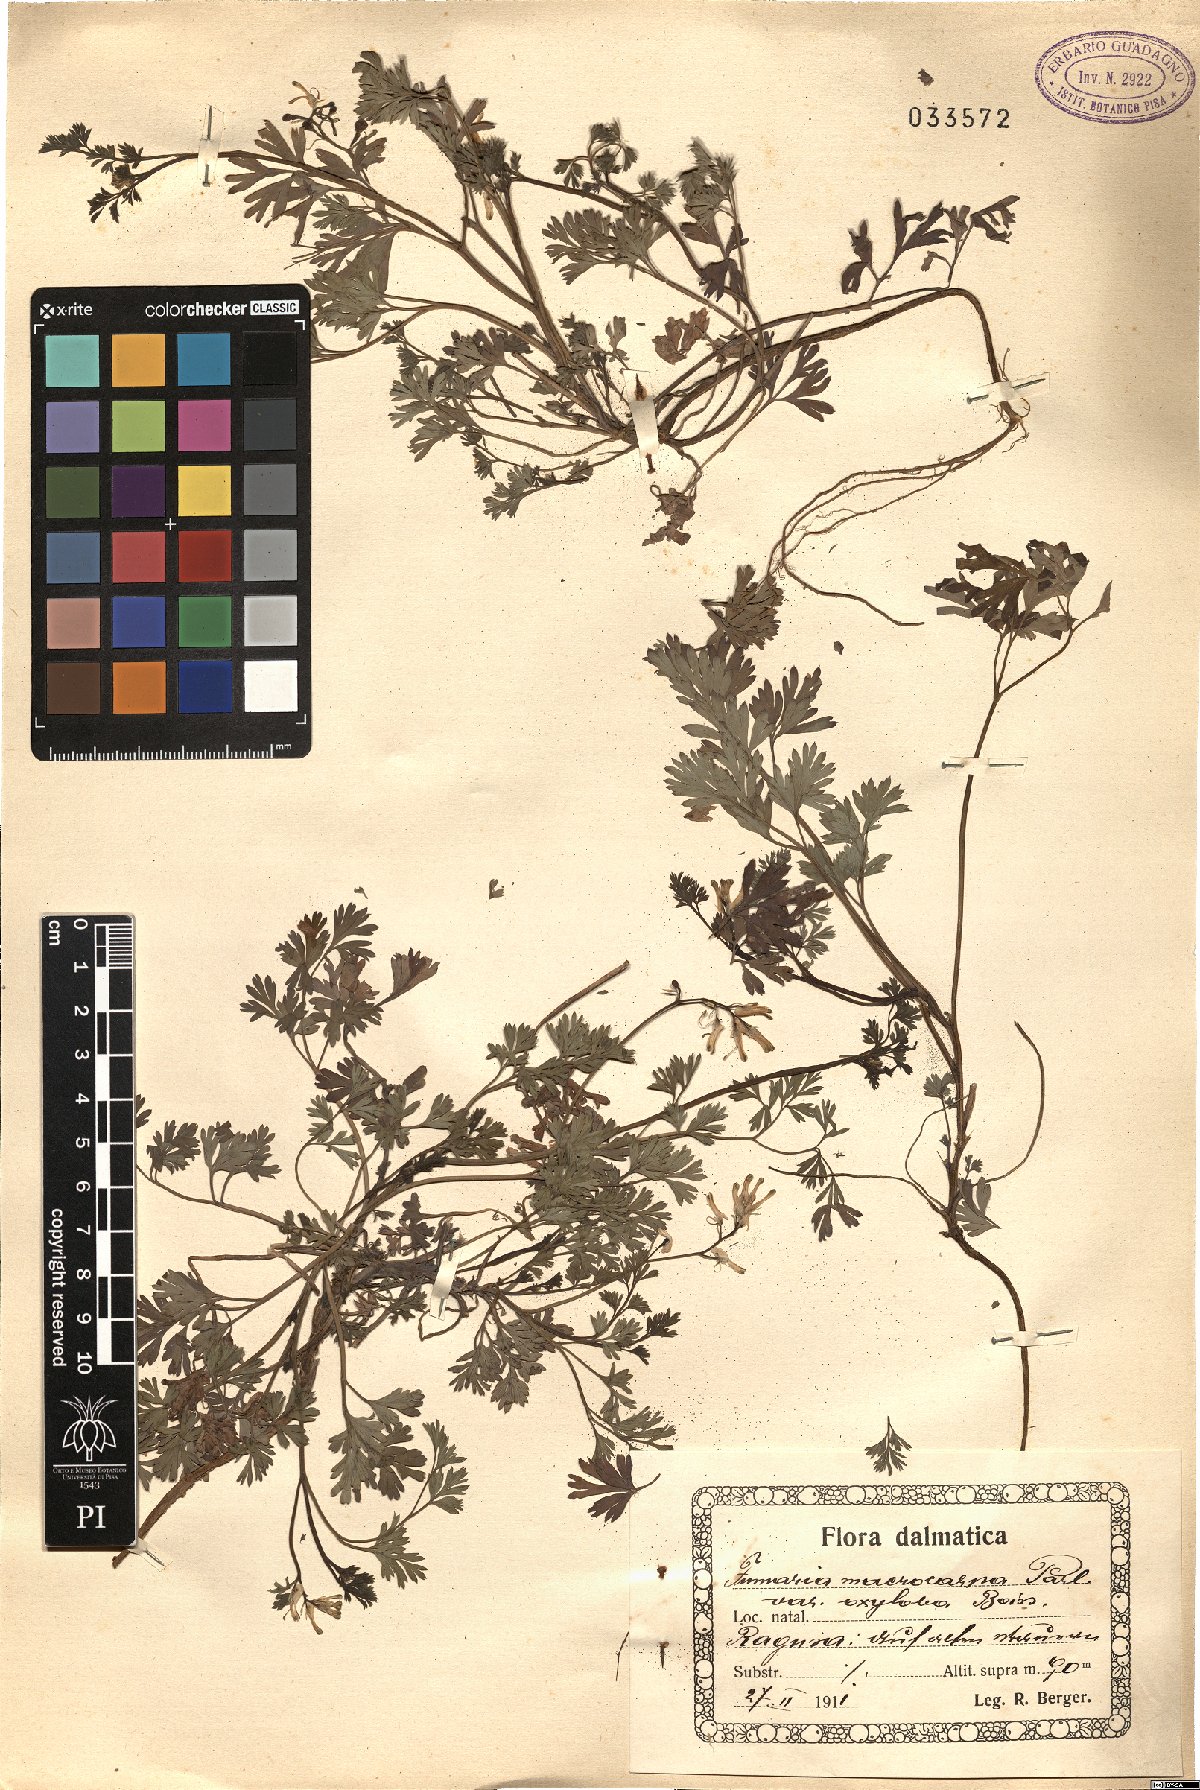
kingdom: Plantae
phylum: Tracheophyta
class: Magnoliopsida
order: Ranunculales
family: Papaveraceae
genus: Fumaria
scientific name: Fumaria macrocarpa
